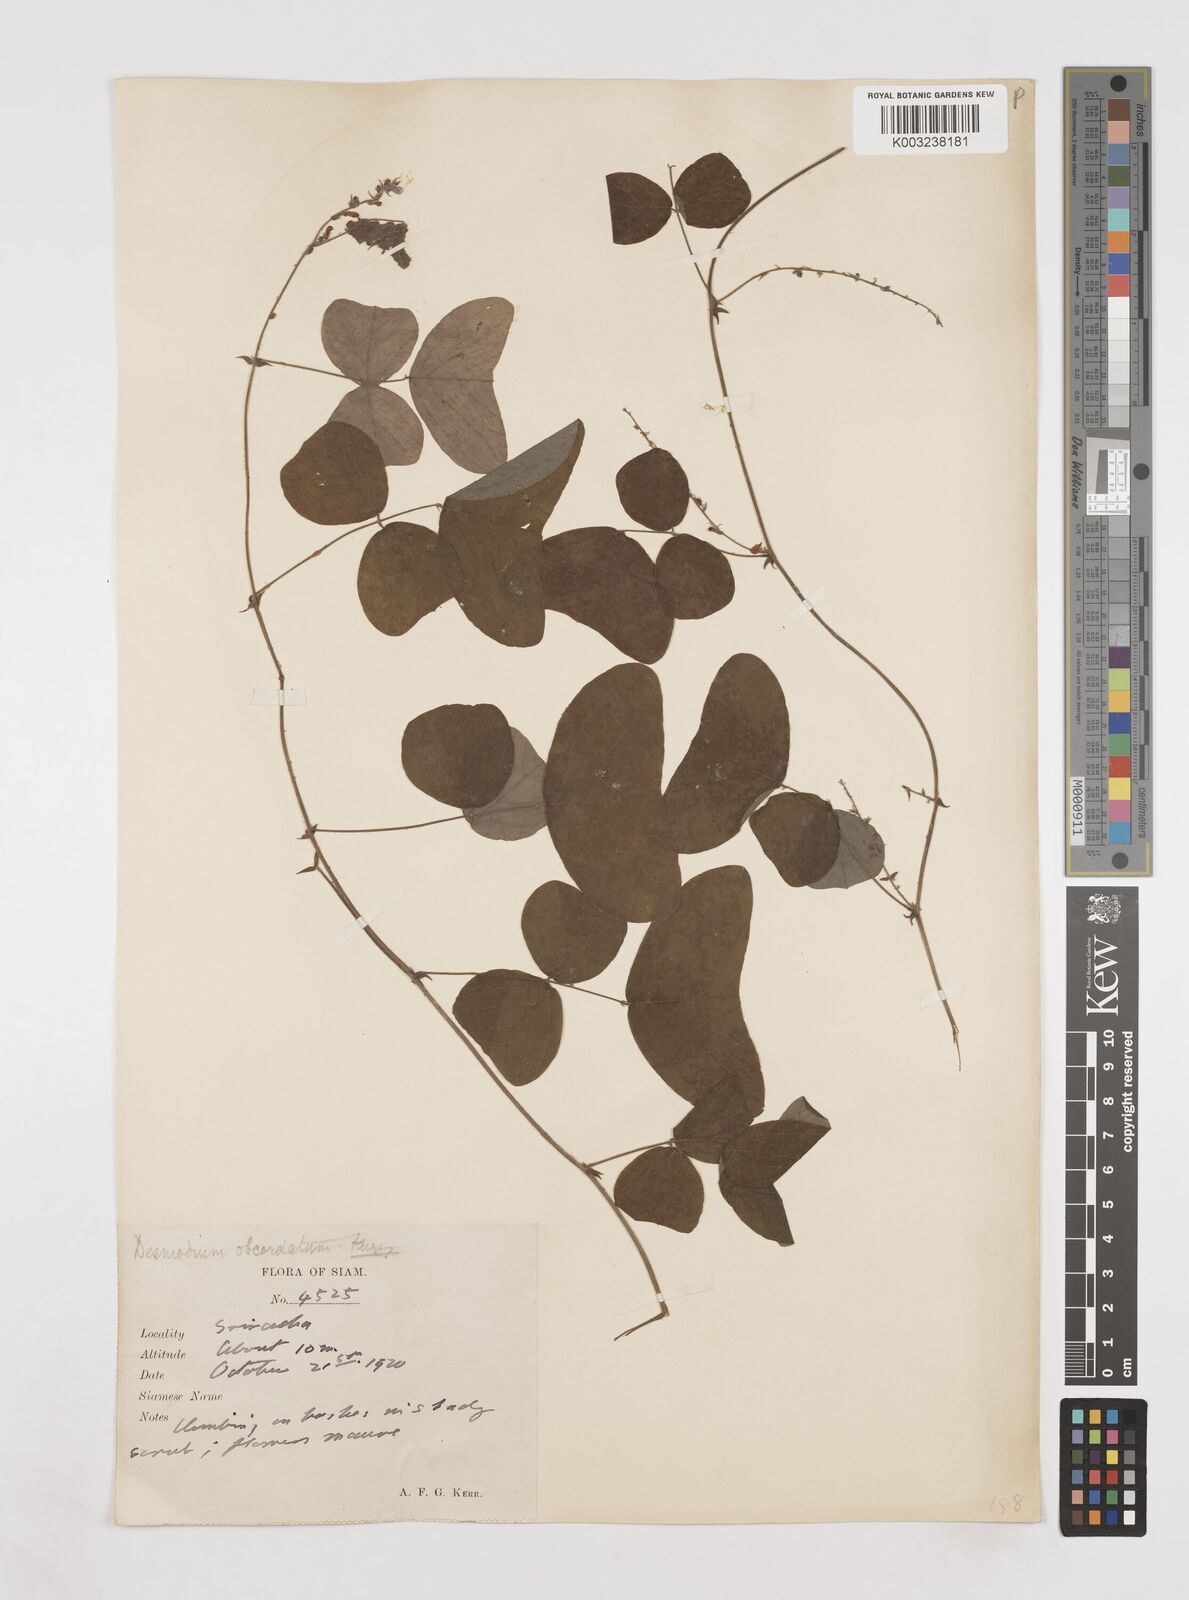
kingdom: Plantae
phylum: Tracheophyta
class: Magnoliopsida
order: Fabales
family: Fabaceae
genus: Hegnera
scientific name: Hegnera obcordata
